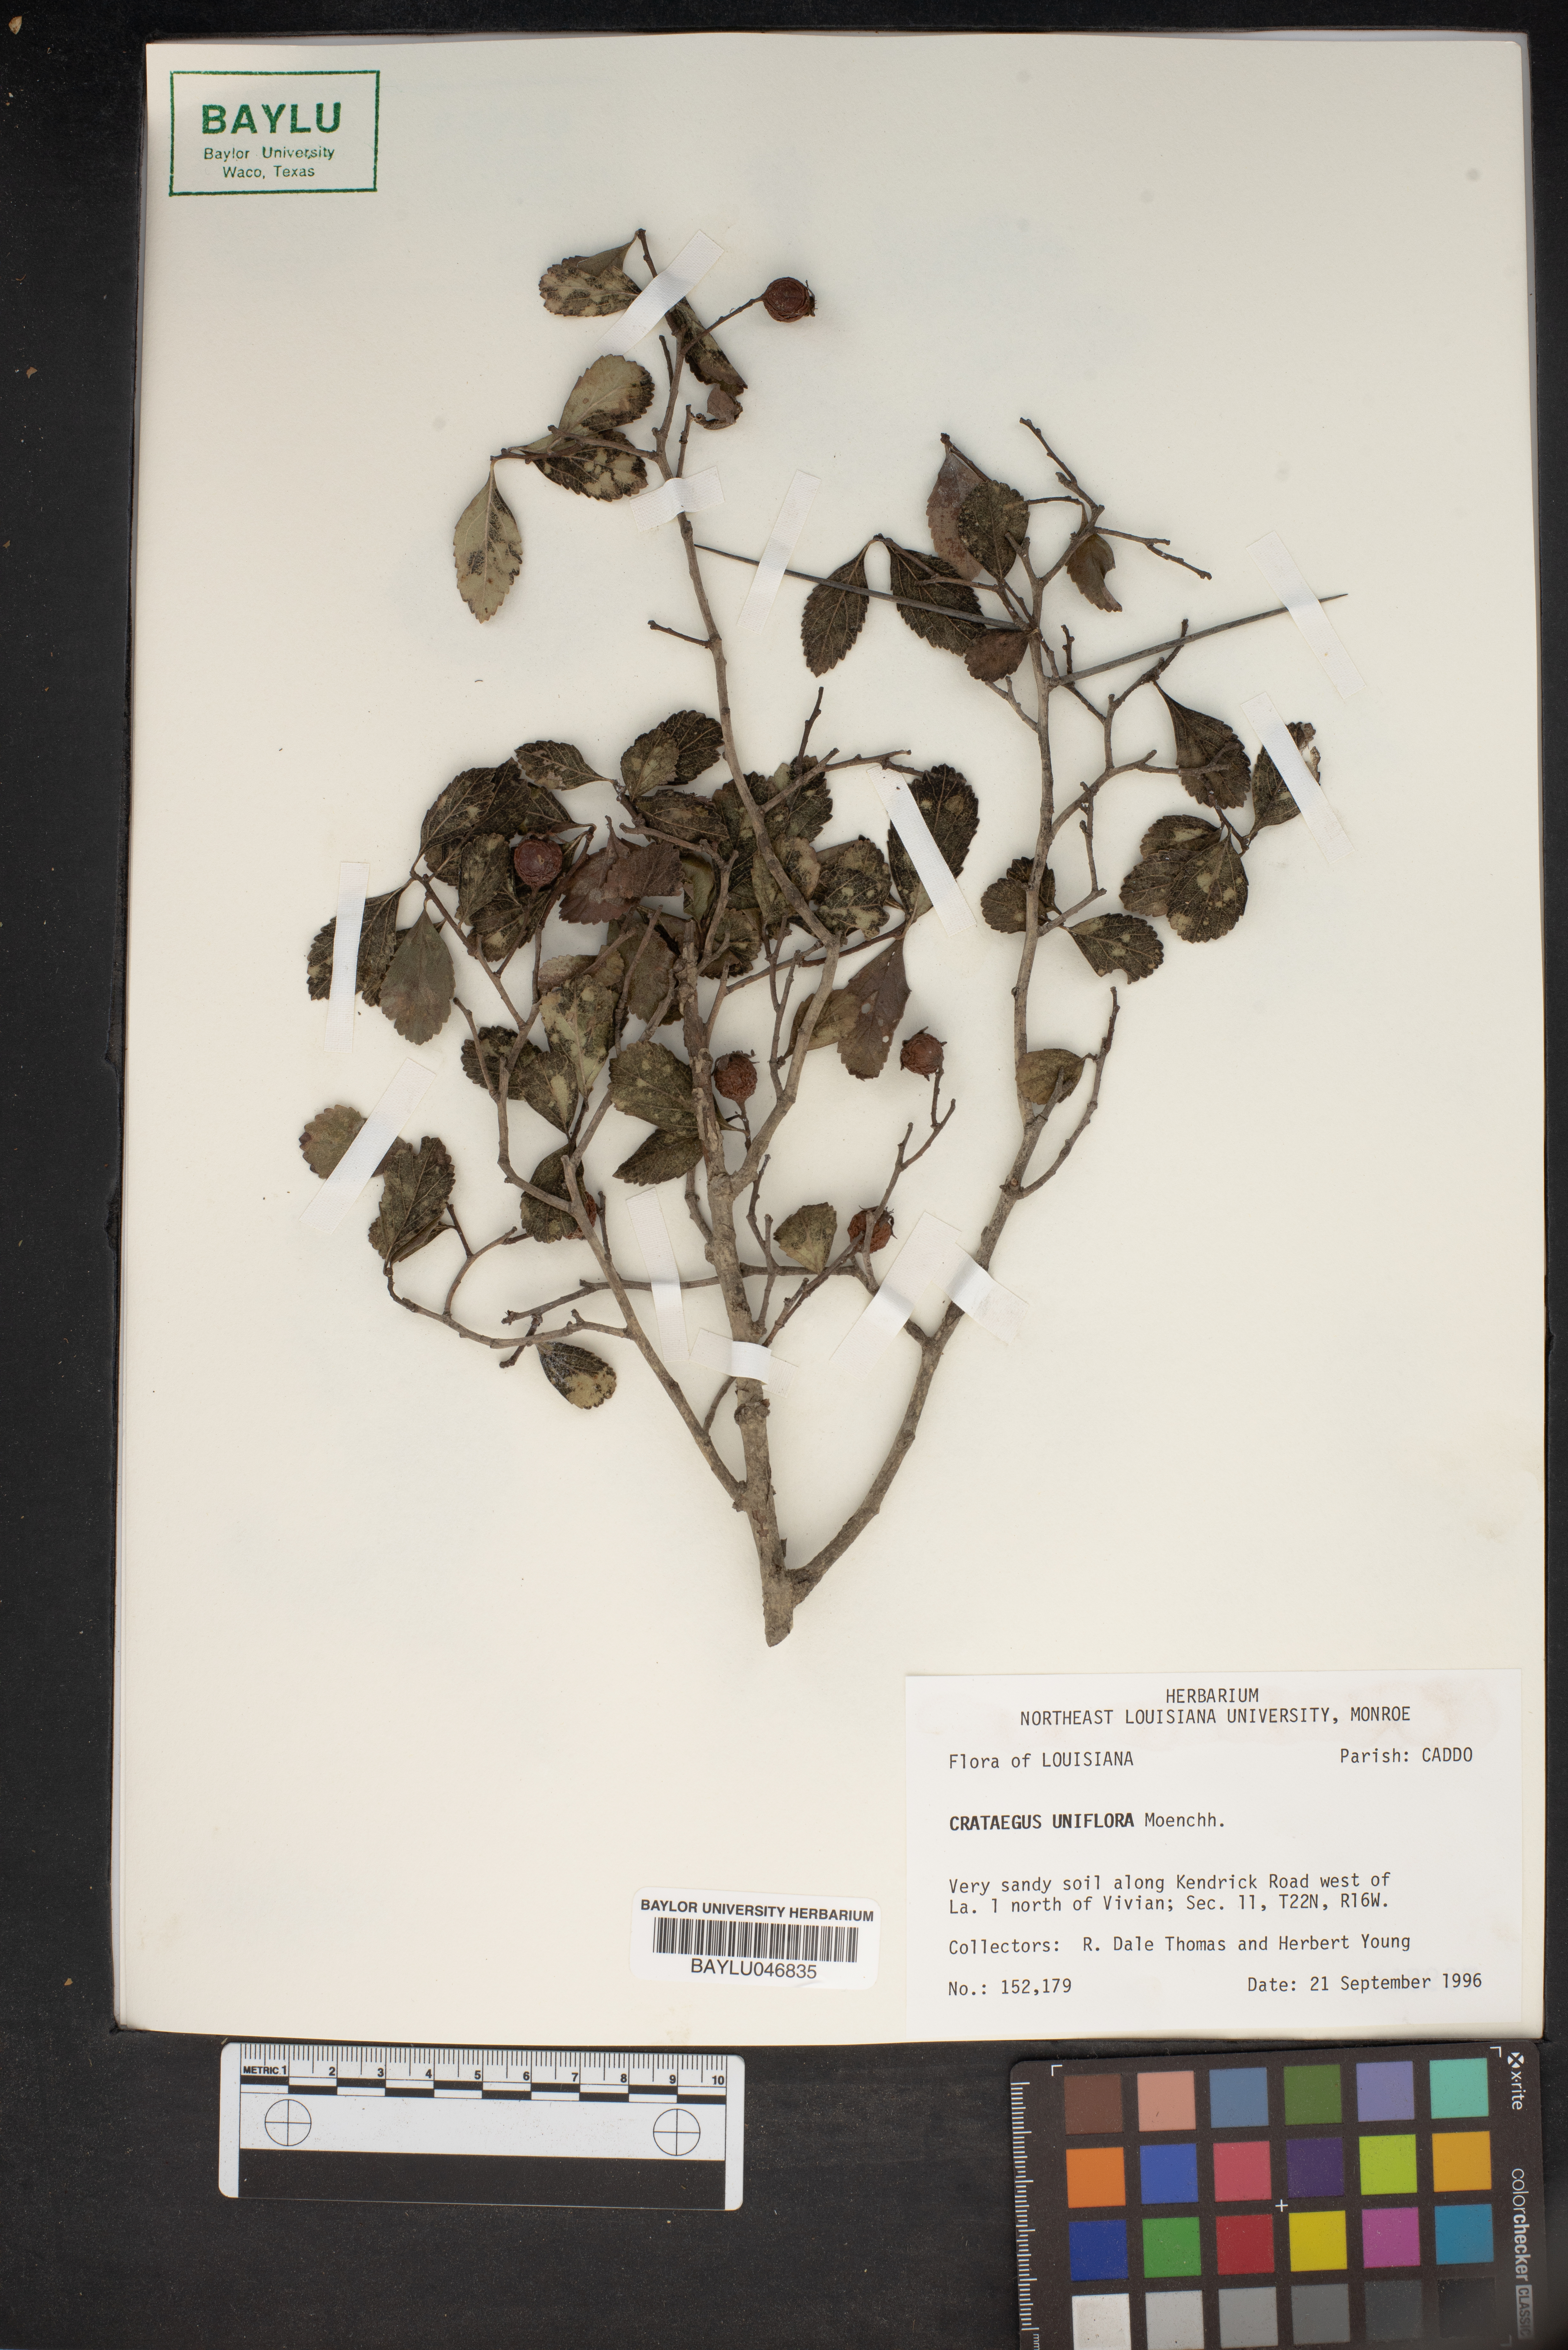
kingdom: Plantae
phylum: Tracheophyta
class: Magnoliopsida
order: Rosales
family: Rosaceae
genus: Crataegus
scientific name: Crataegus uniflora
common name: One-flower hawthorn
